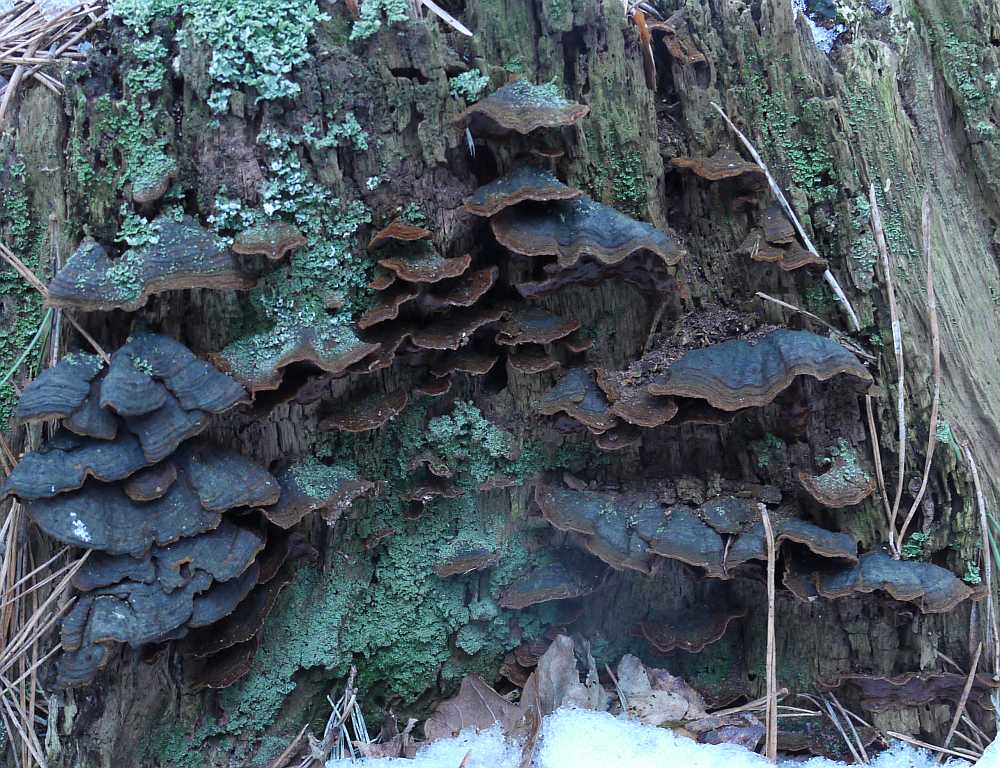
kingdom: Fungi
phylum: Basidiomycota
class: Agaricomycetes
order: Hymenochaetales
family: Hymenochaetaceae
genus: Hymenochaete
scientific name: Hymenochaete rubiginosa
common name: stiv ruslædersvamp
